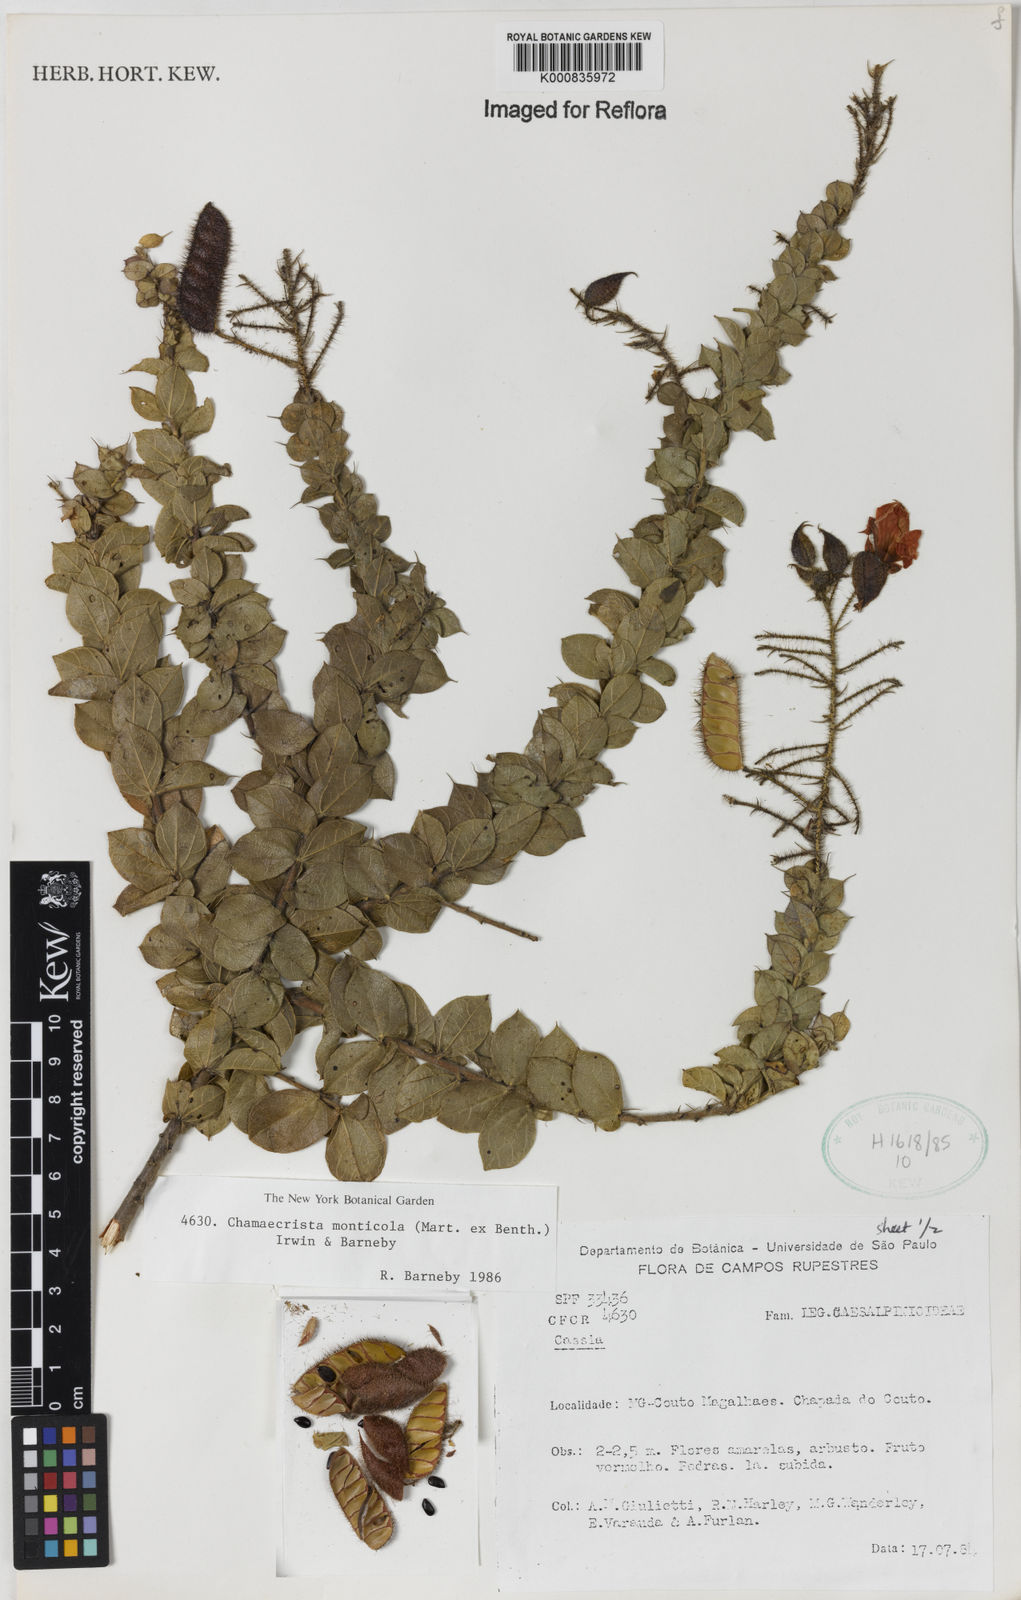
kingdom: Plantae
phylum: Tracheophyta
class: Magnoliopsida
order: Fabales
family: Fabaceae
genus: Chamaecrista
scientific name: Chamaecrista monticola
